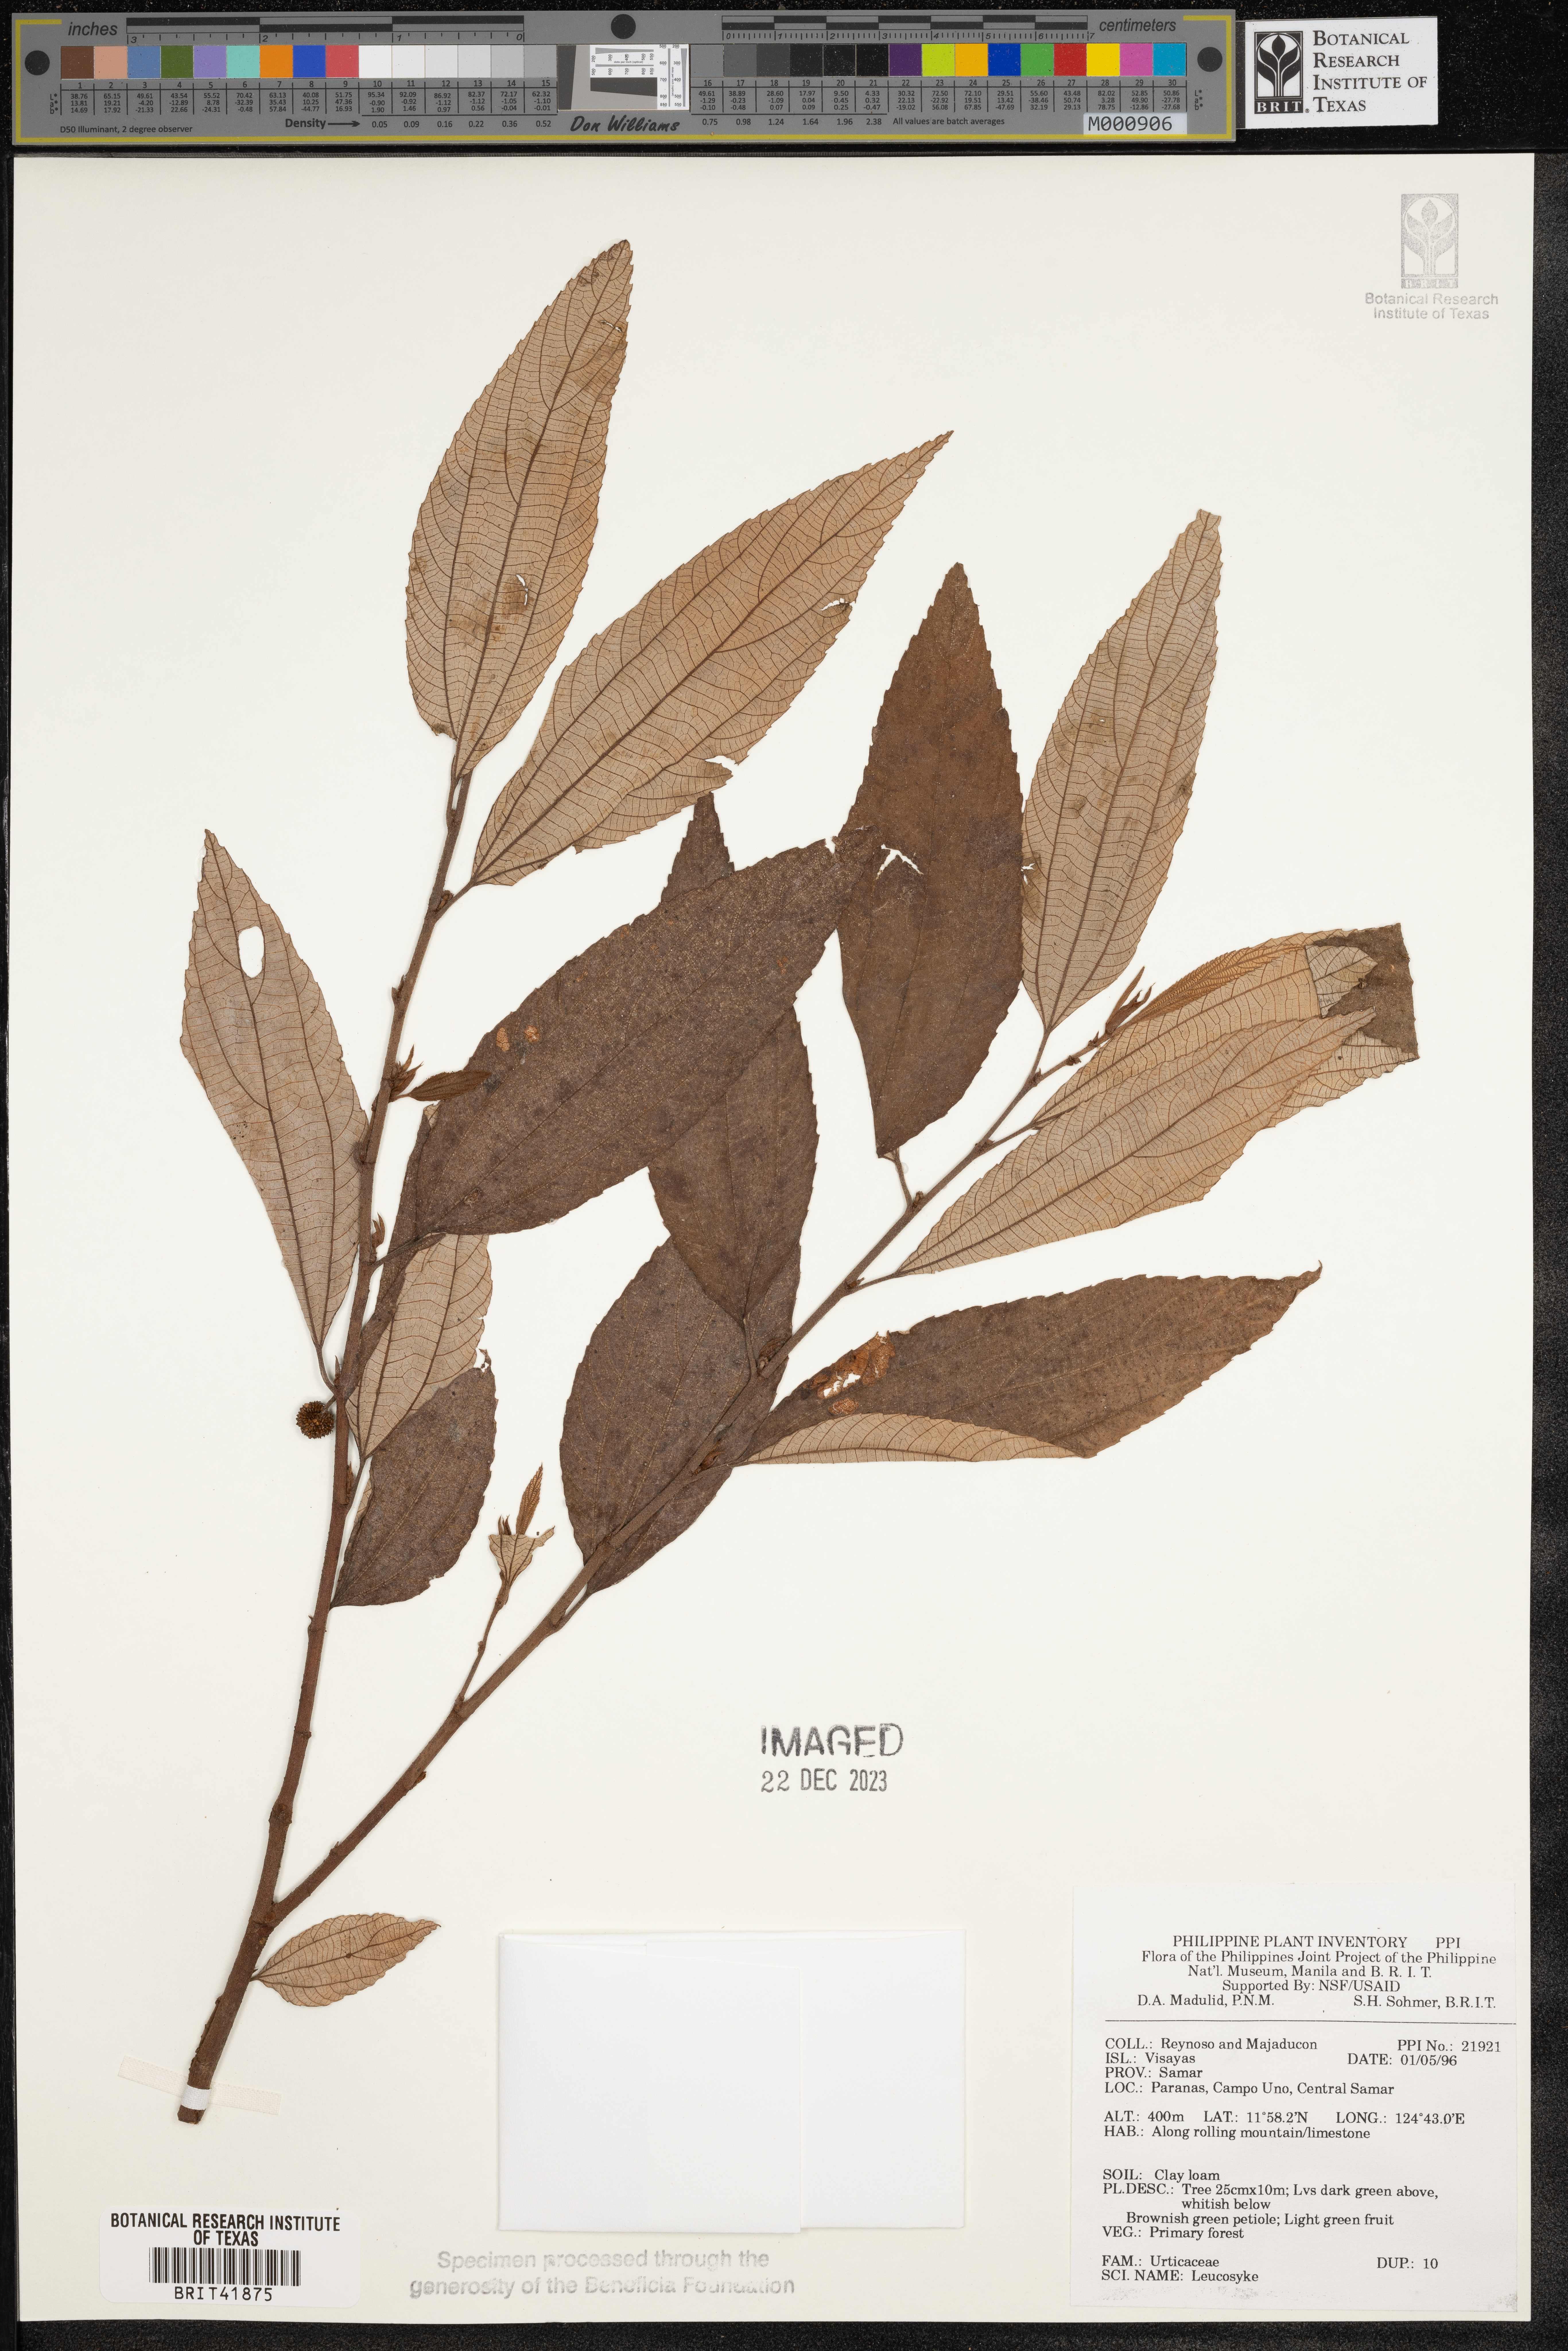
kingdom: Plantae
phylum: Tracheophyta
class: Magnoliopsida
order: Rosales
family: Urticaceae
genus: Leucosyke
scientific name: Leucosyke
